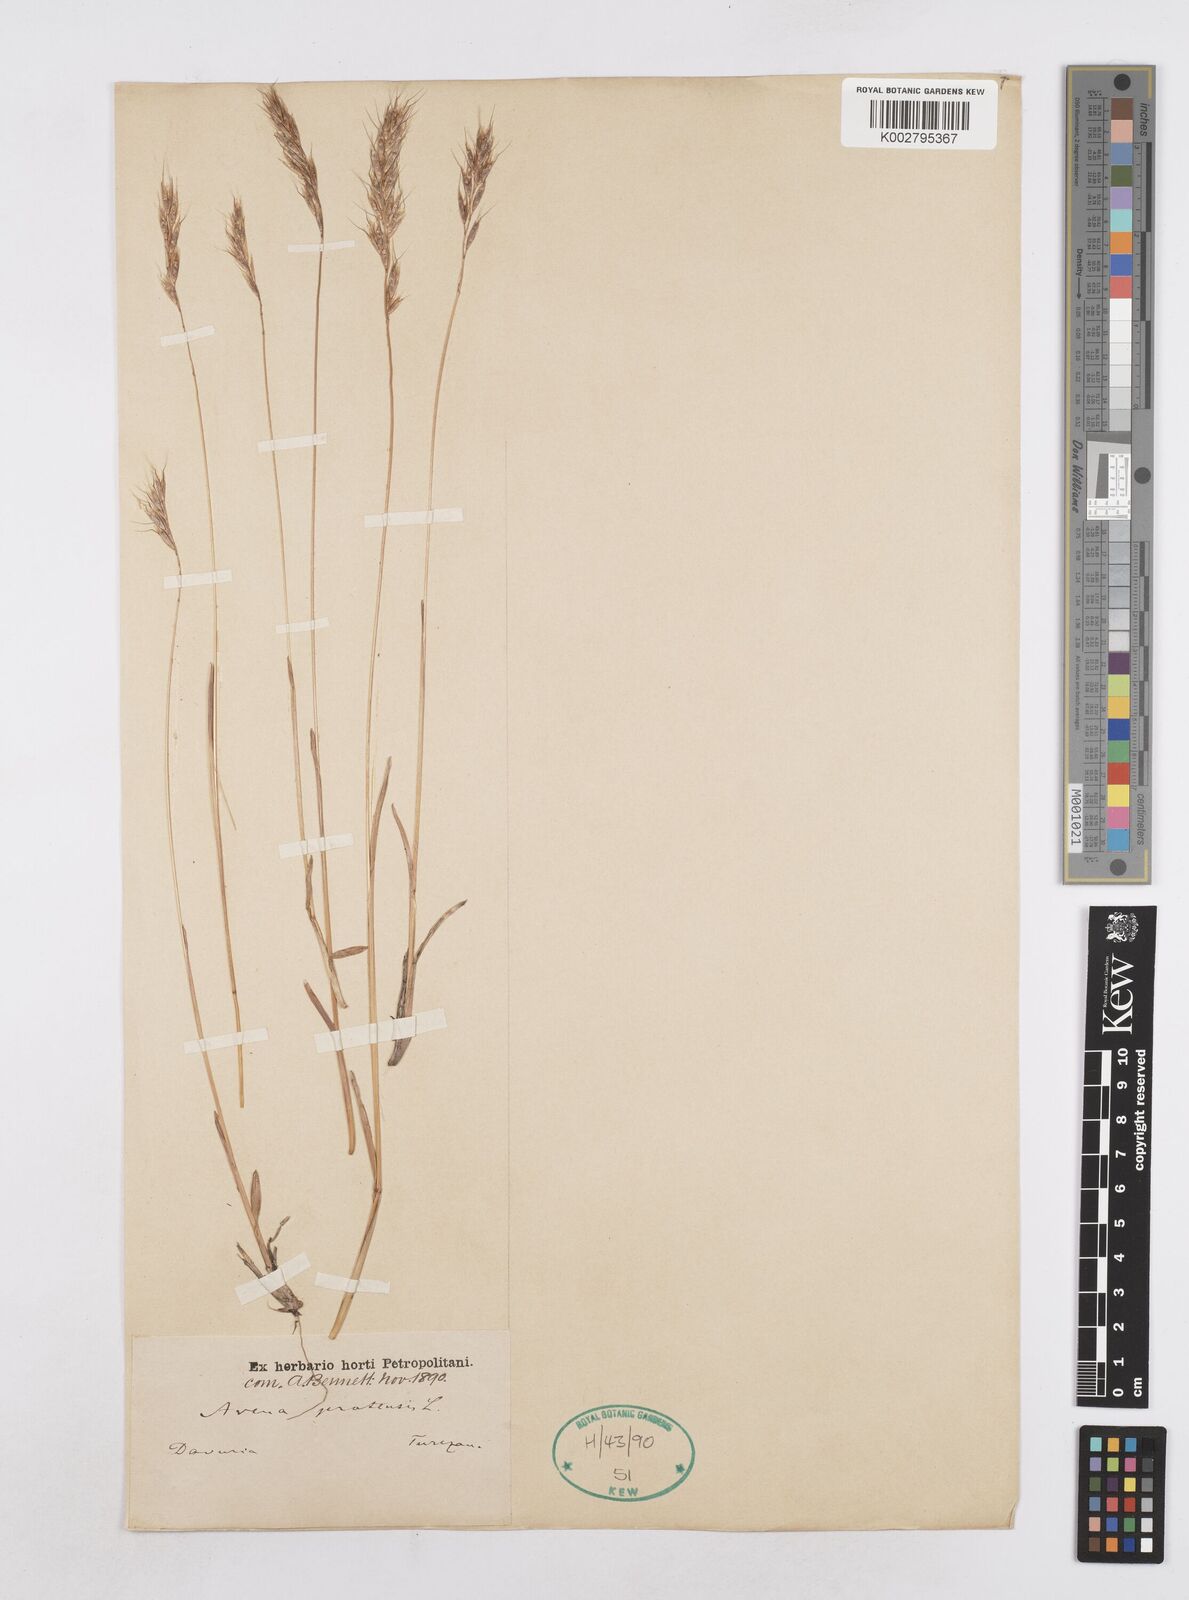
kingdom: Plantae
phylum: Tracheophyta
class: Liliopsida
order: Poales
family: Poaceae
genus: Helictotrichon
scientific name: Helictotrichon
